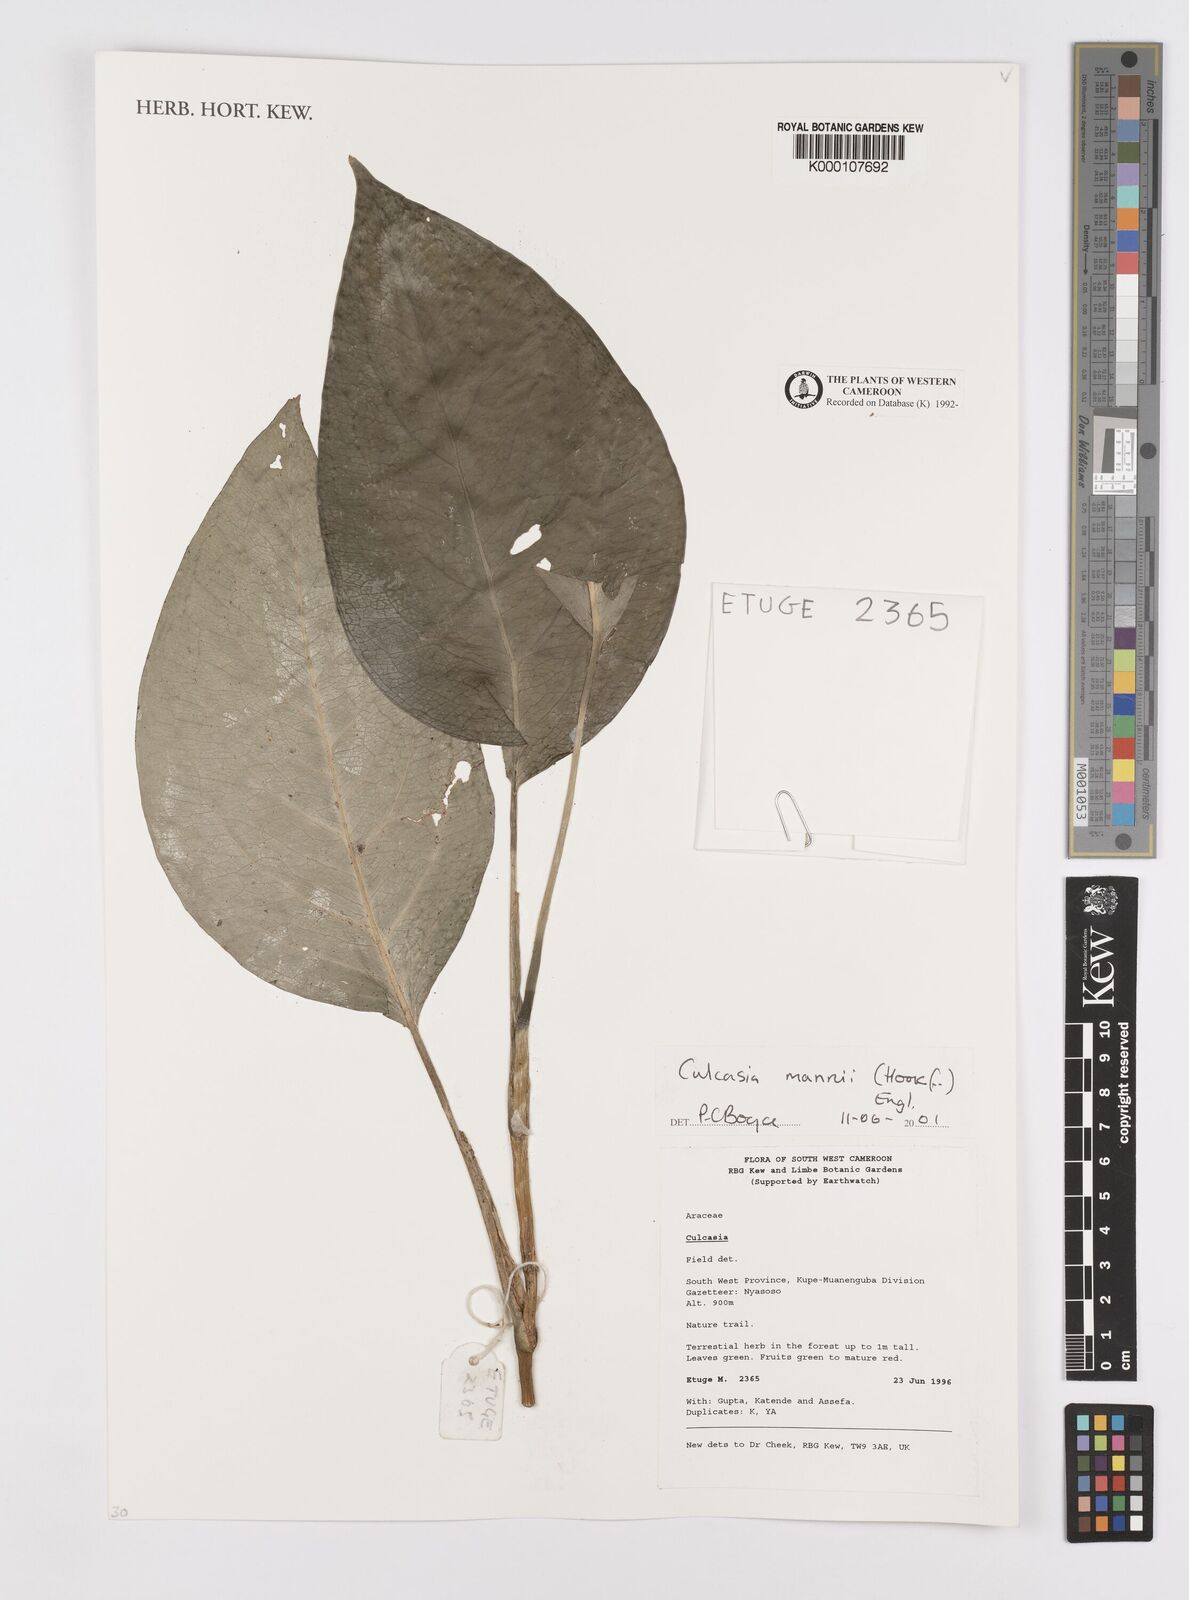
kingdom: Plantae
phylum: Tracheophyta
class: Liliopsida
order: Alismatales
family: Araceae
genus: Culcasia
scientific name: Culcasia mannii
